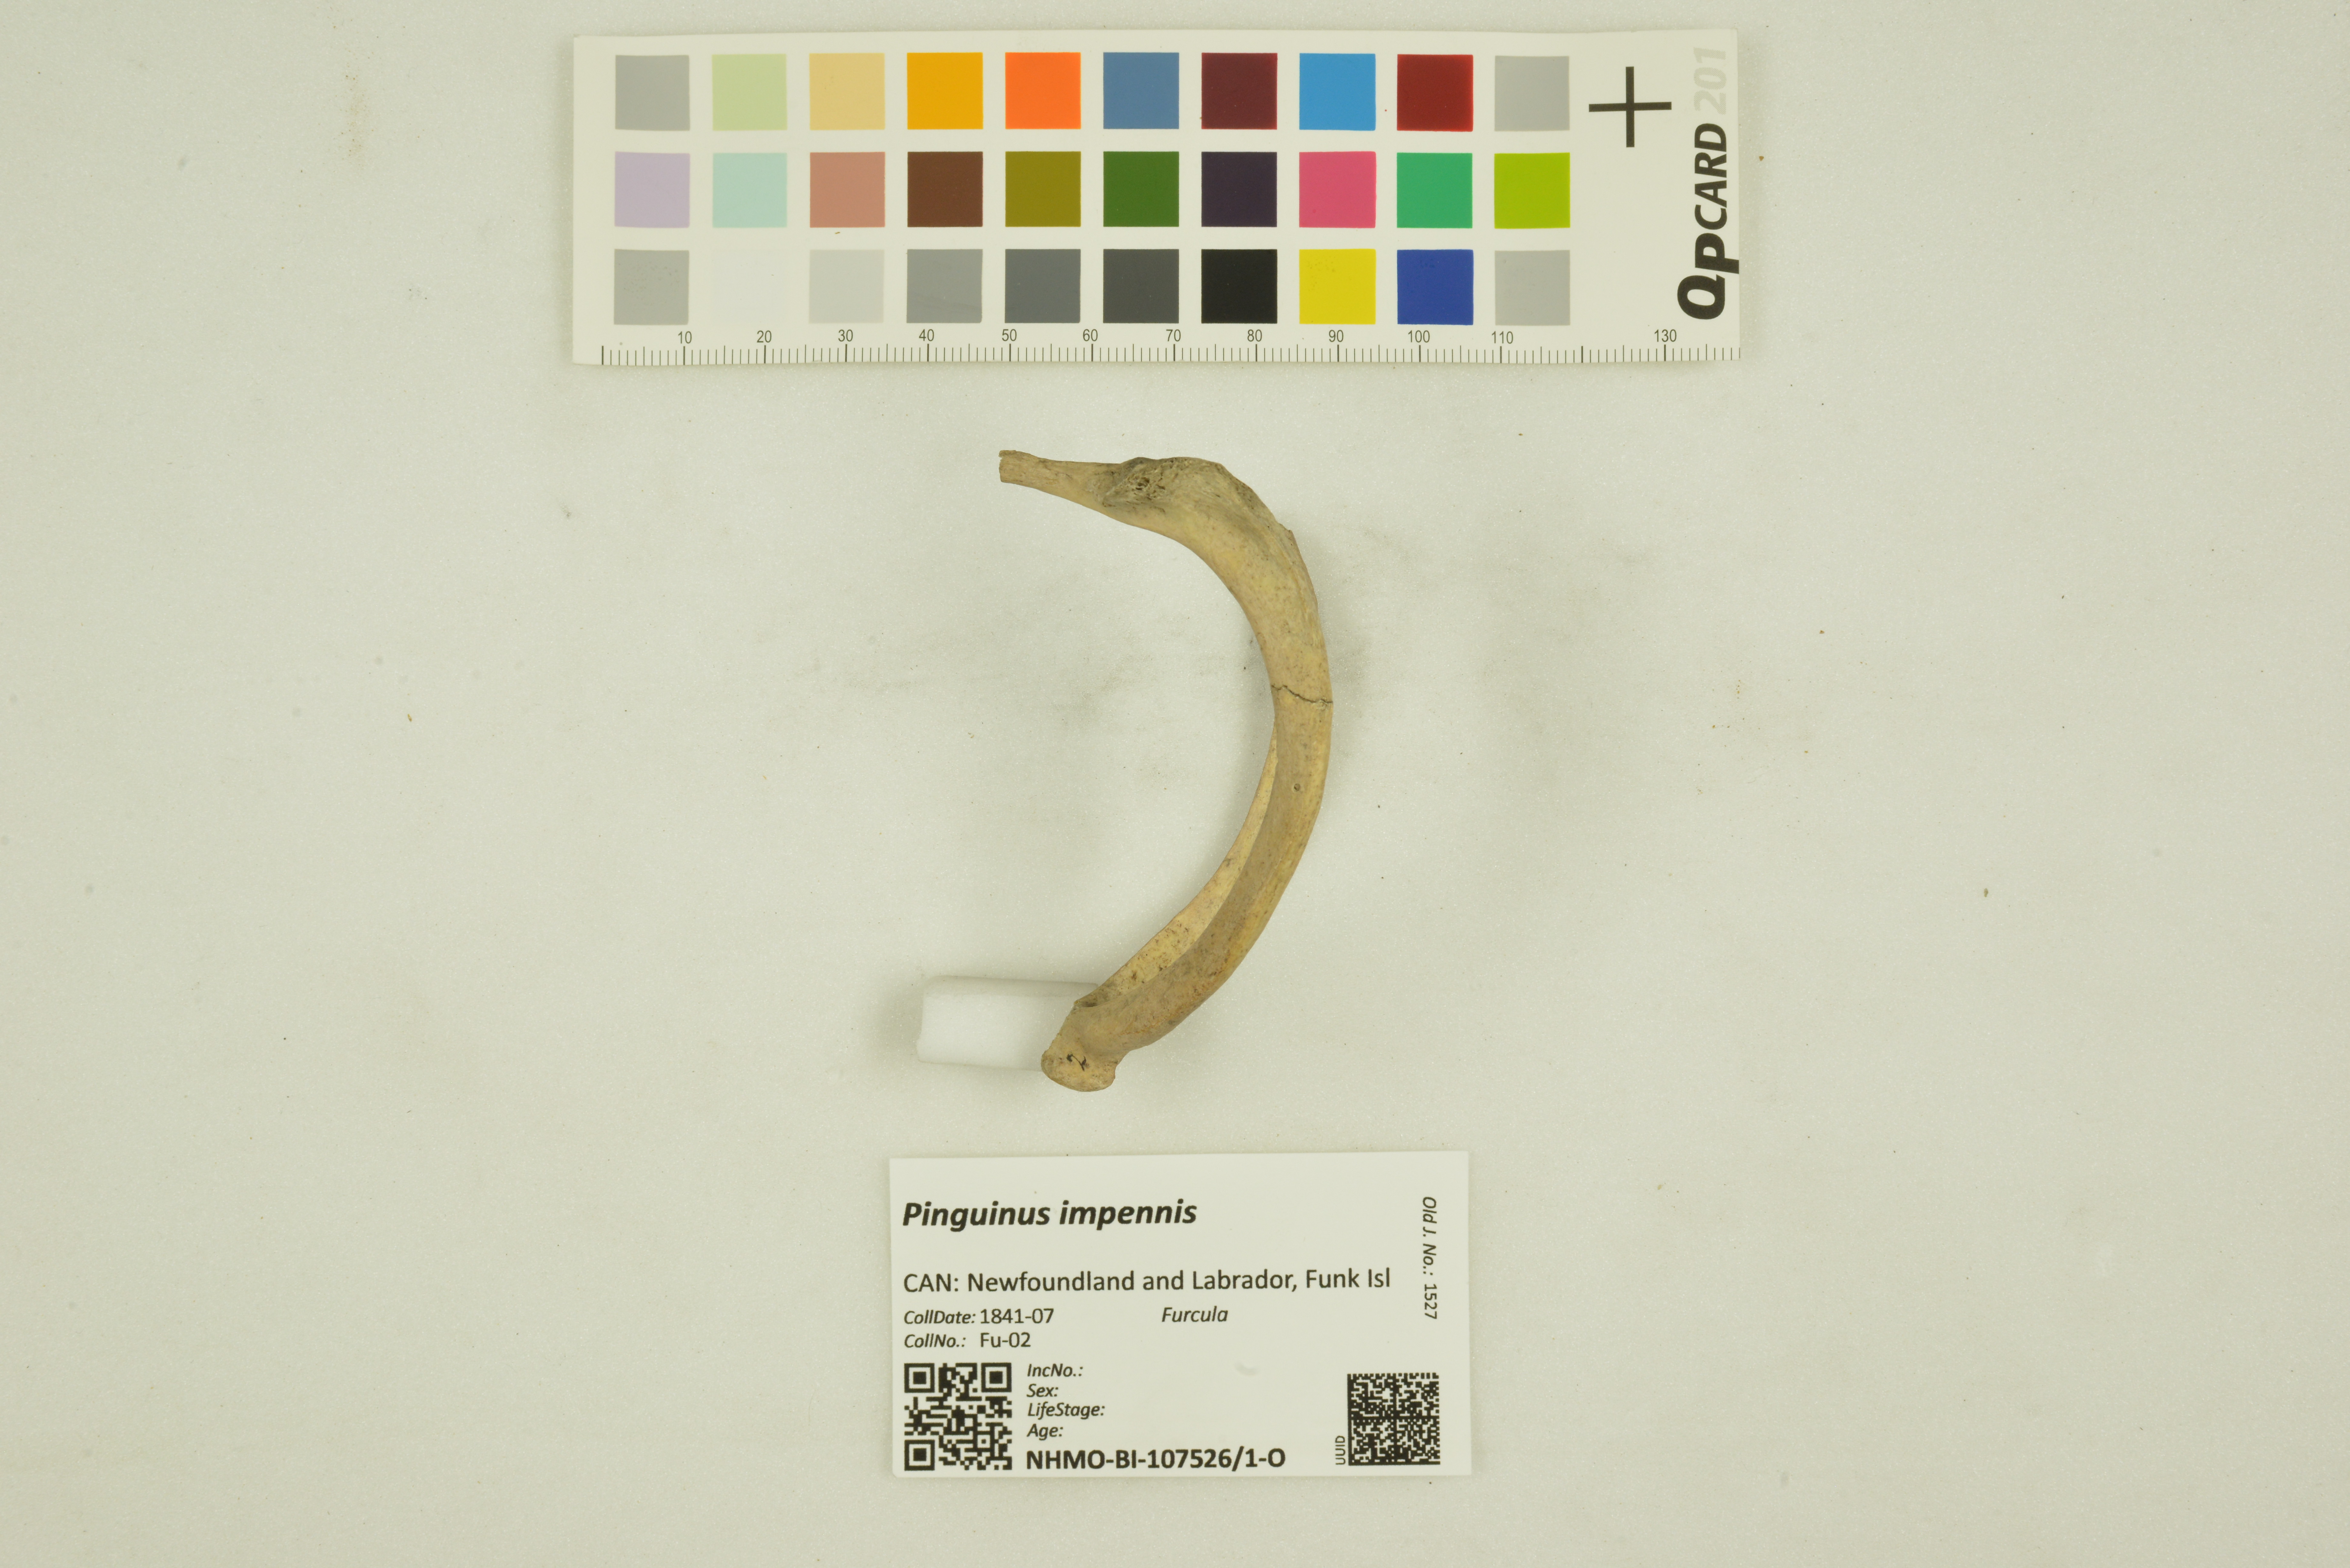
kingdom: Animalia
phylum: Chordata
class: Aves
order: Charadriiformes
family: Alcidae
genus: Pinguinus
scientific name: Pinguinus impennis
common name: Great auk
